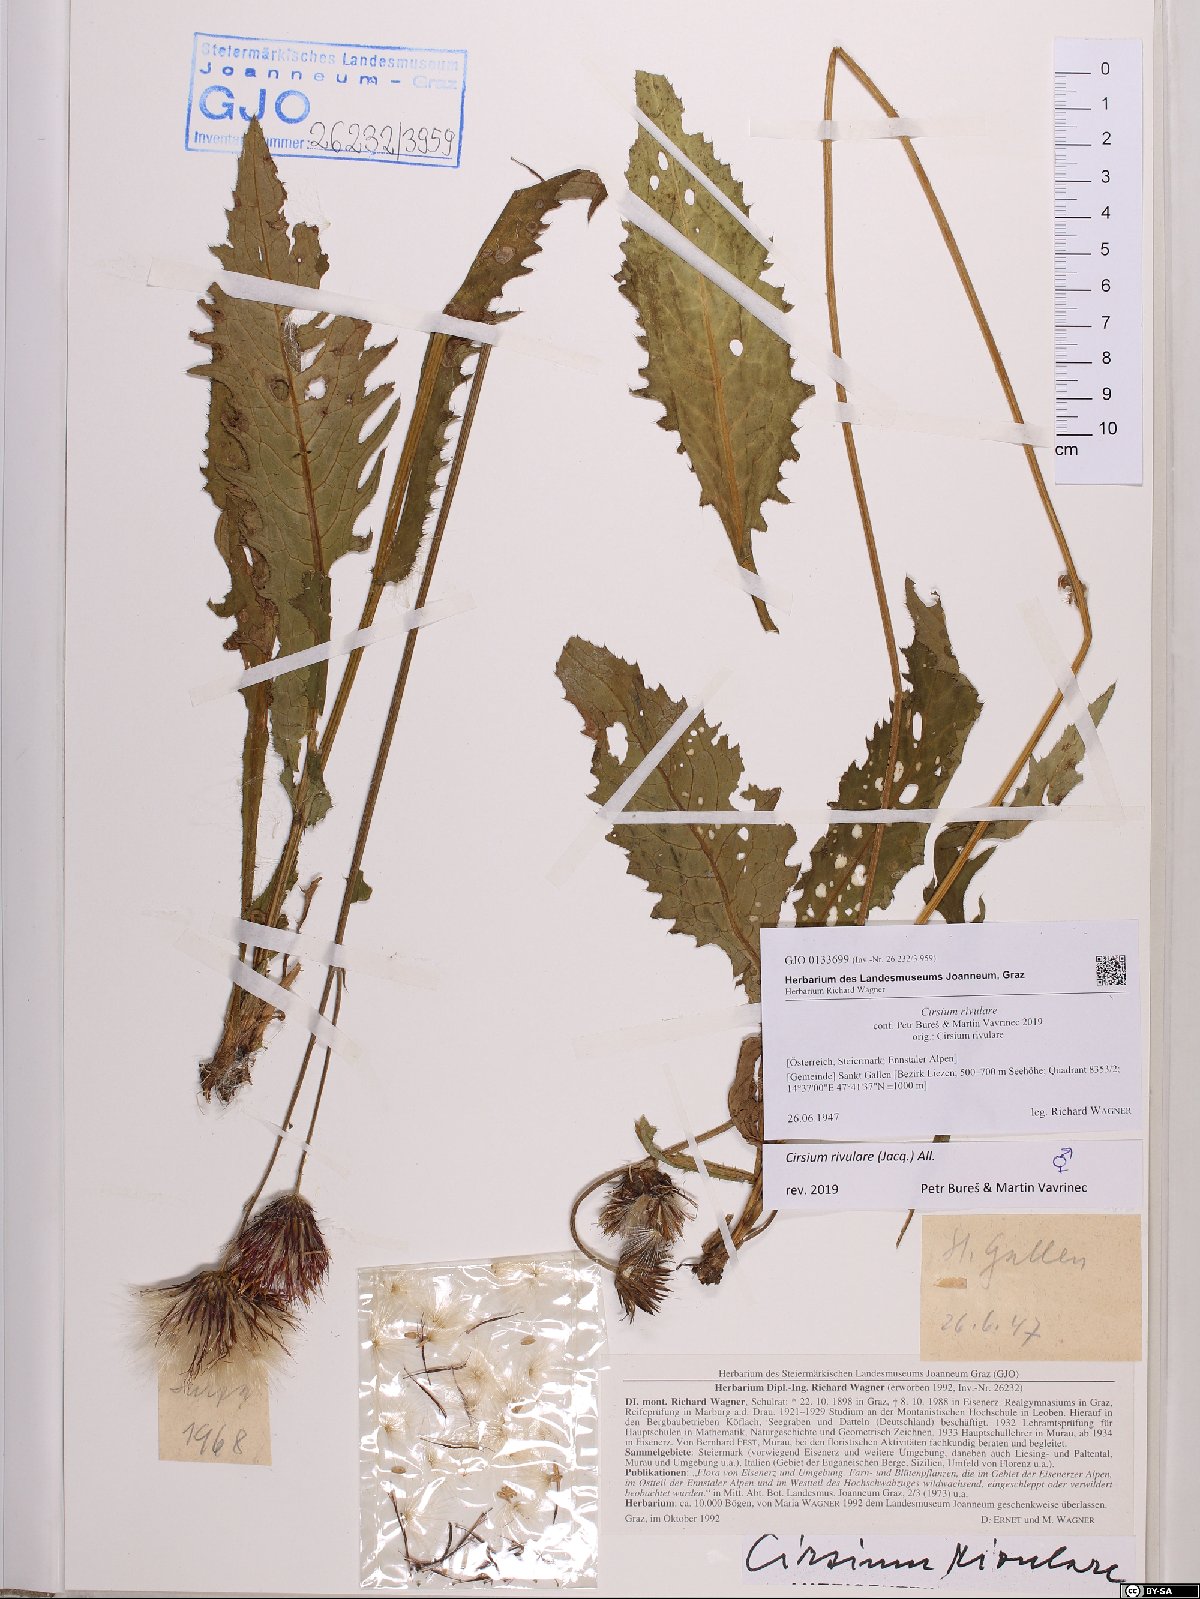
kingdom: Plantae
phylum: Tracheophyta
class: Magnoliopsida
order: Asterales
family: Asteraceae
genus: Cirsium
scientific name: Cirsium rivulare
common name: Brook thistle
